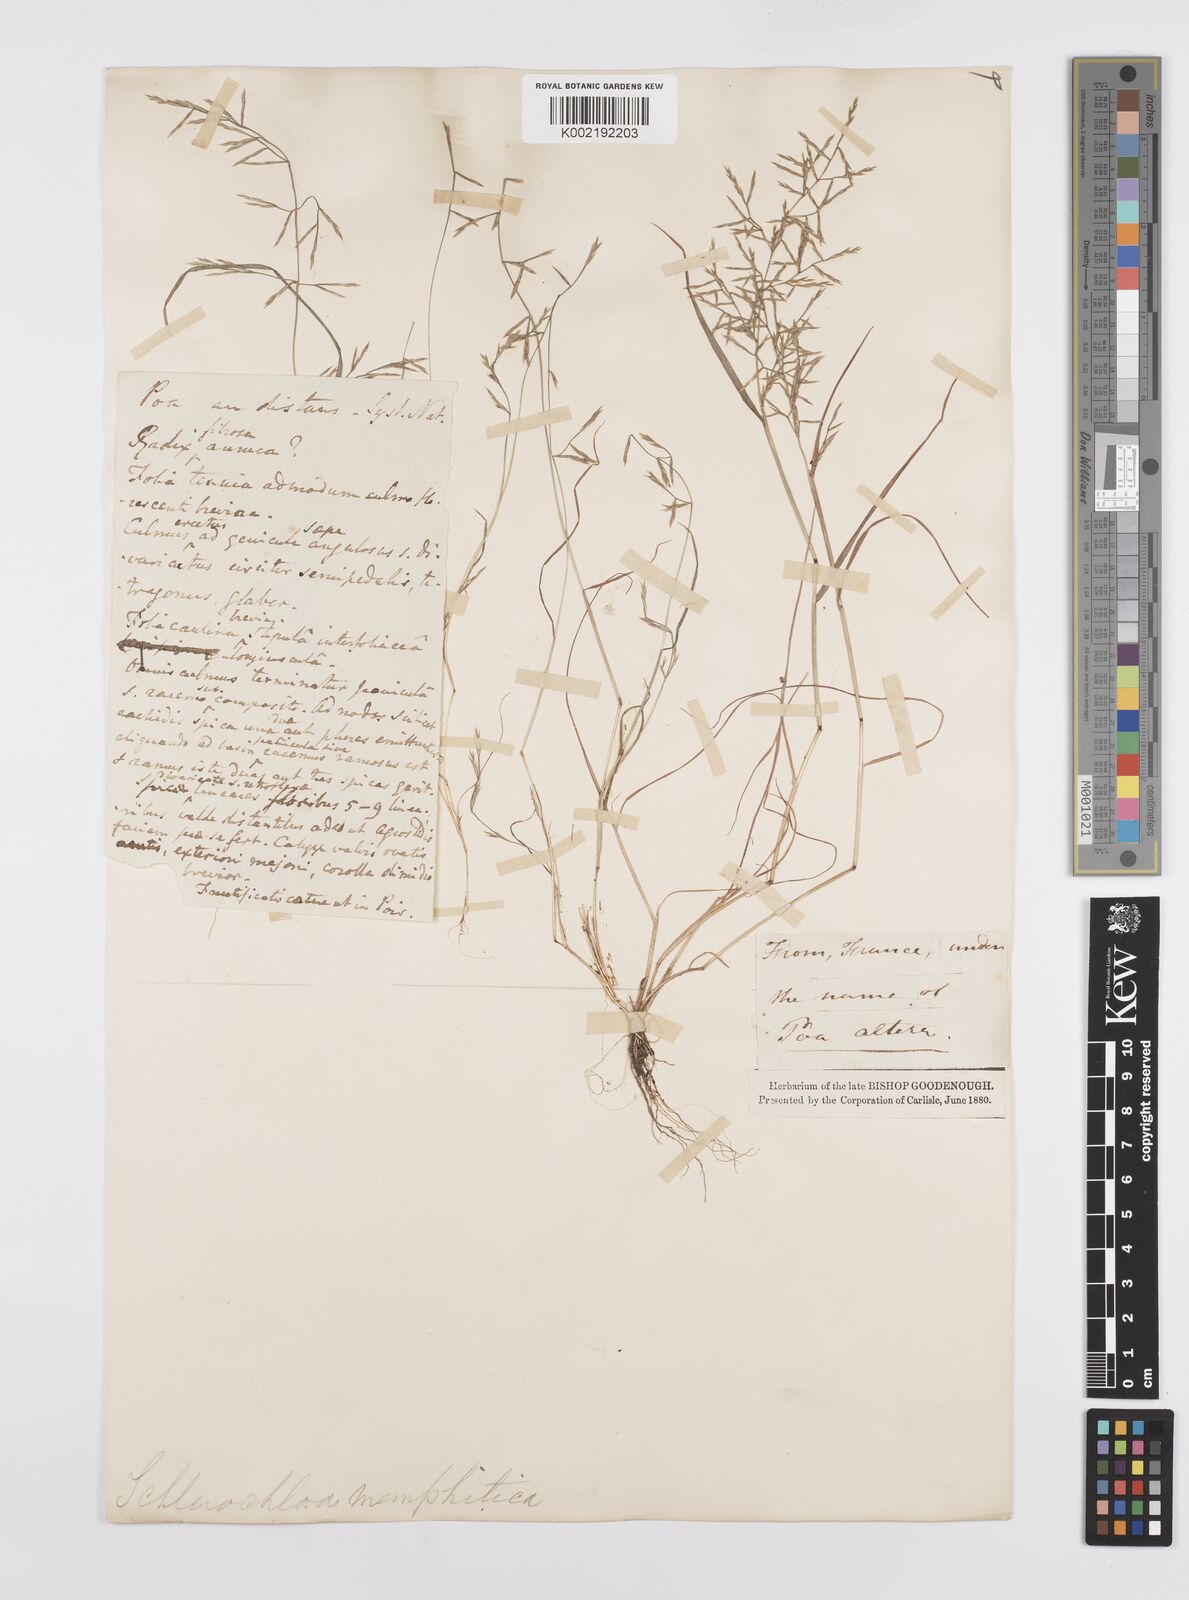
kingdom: Plantae
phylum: Tracheophyta
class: Liliopsida
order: Poales
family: Poaceae
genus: Cutandia
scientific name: Cutandia divaricata
